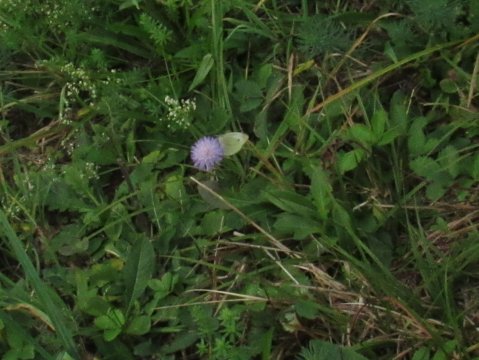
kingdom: Animalia
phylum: Arthropoda
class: Insecta
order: Lepidoptera
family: Pieridae
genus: Pieris
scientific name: Pieris rapae
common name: Cabbage White
